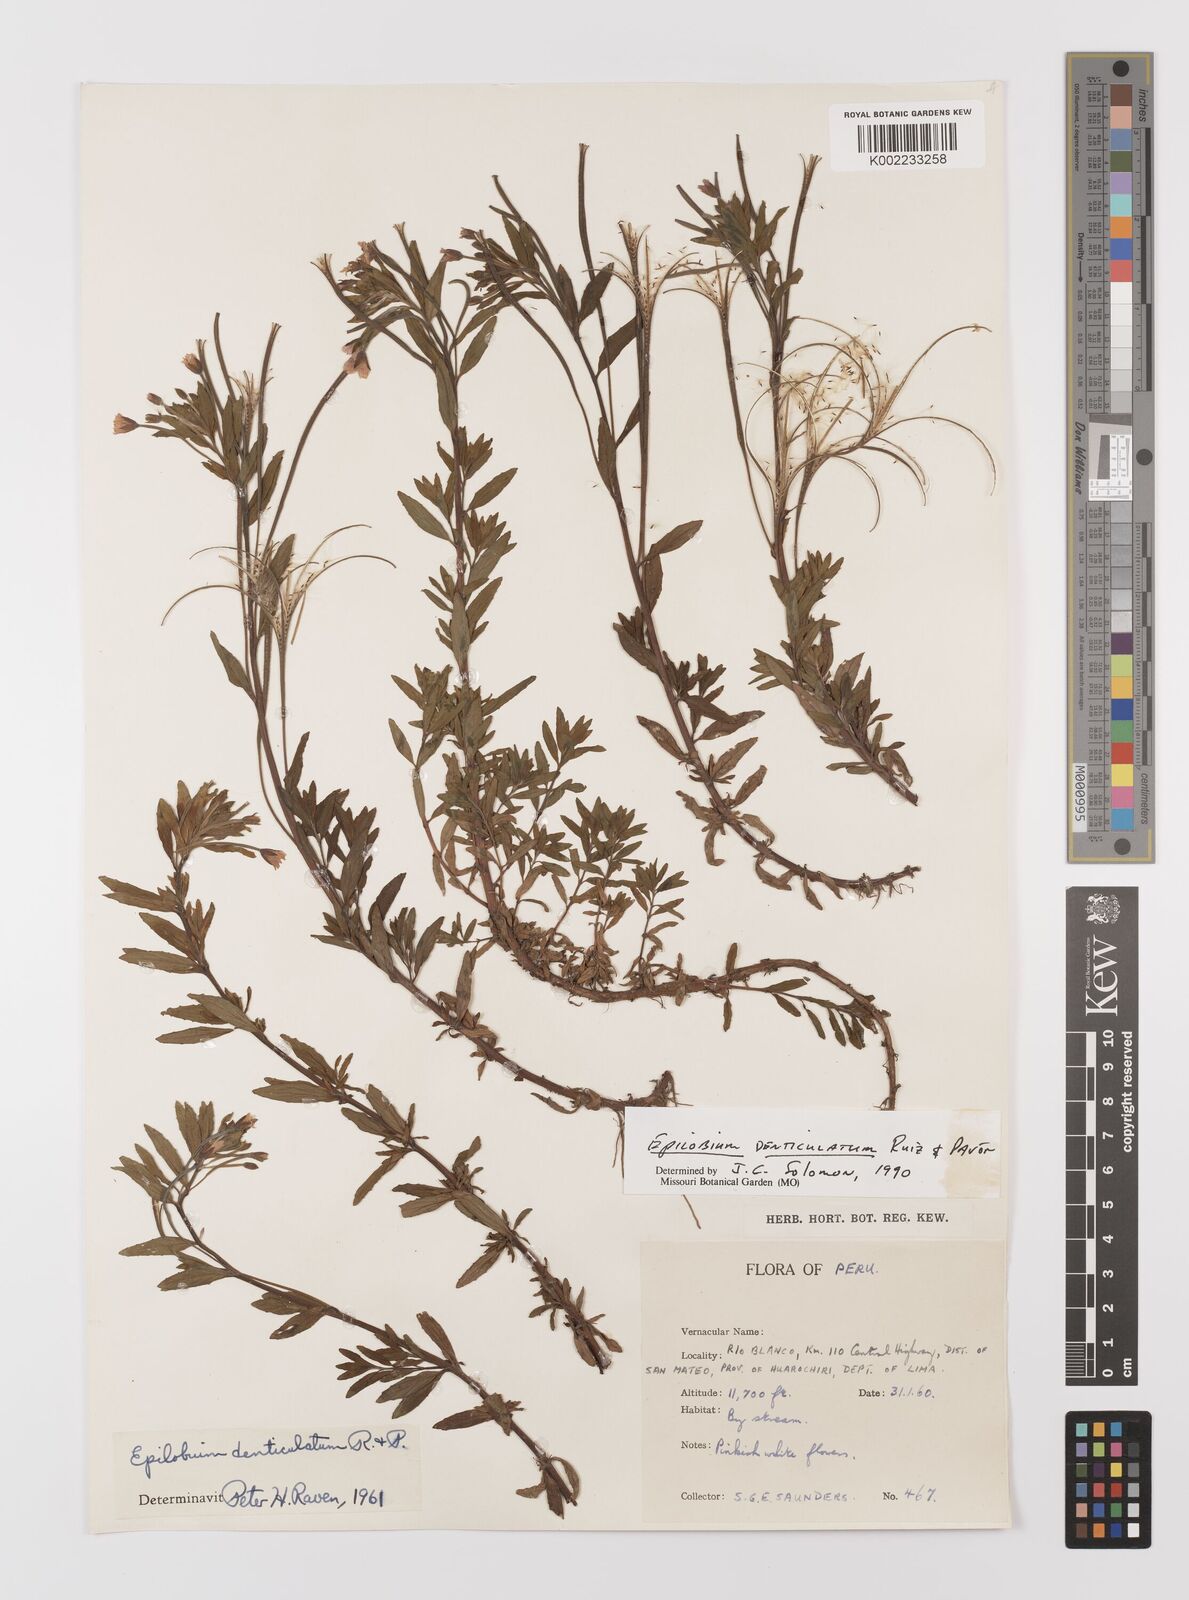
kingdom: Plantae
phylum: Tracheophyta
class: Magnoliopsida
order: Myrtales
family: Onagraceae
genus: Epilobium
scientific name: Epilobium denticulatum
